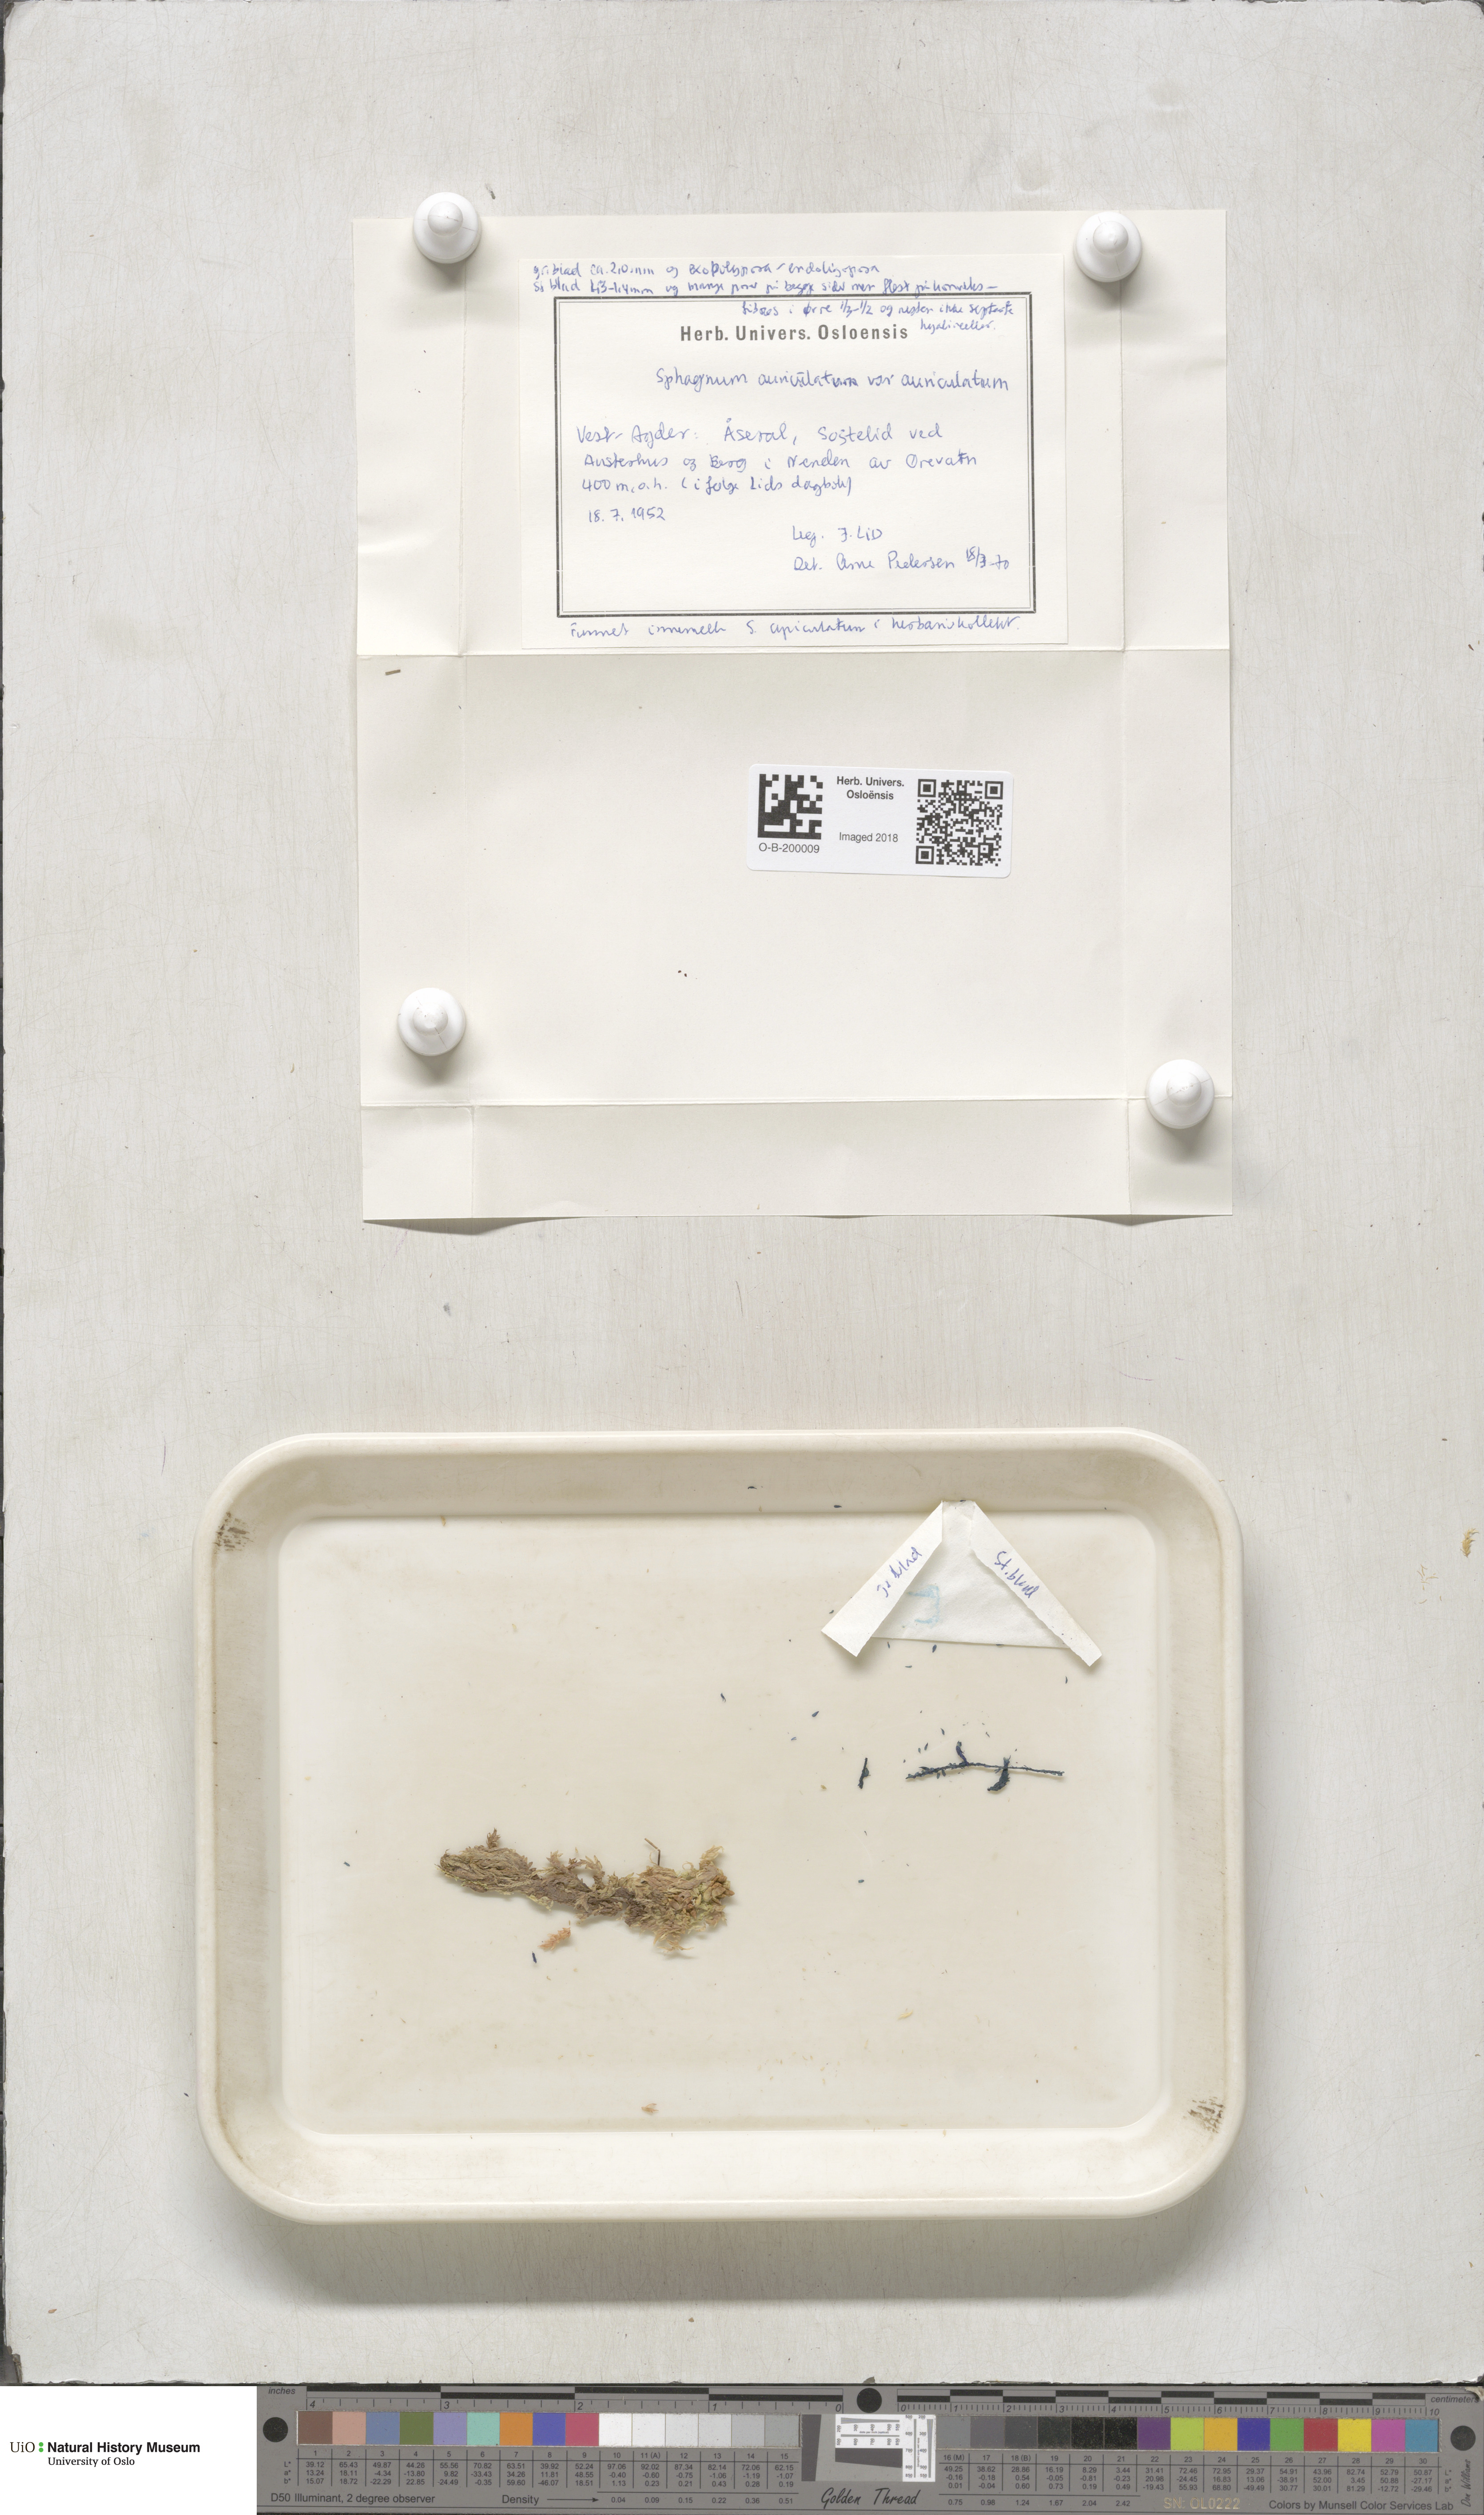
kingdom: Plantae
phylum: Bryophyta
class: Sphagnopsida
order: Sphagnales
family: Sphagnaceae
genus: Sphagnum
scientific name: Sphagnum denticulatum
